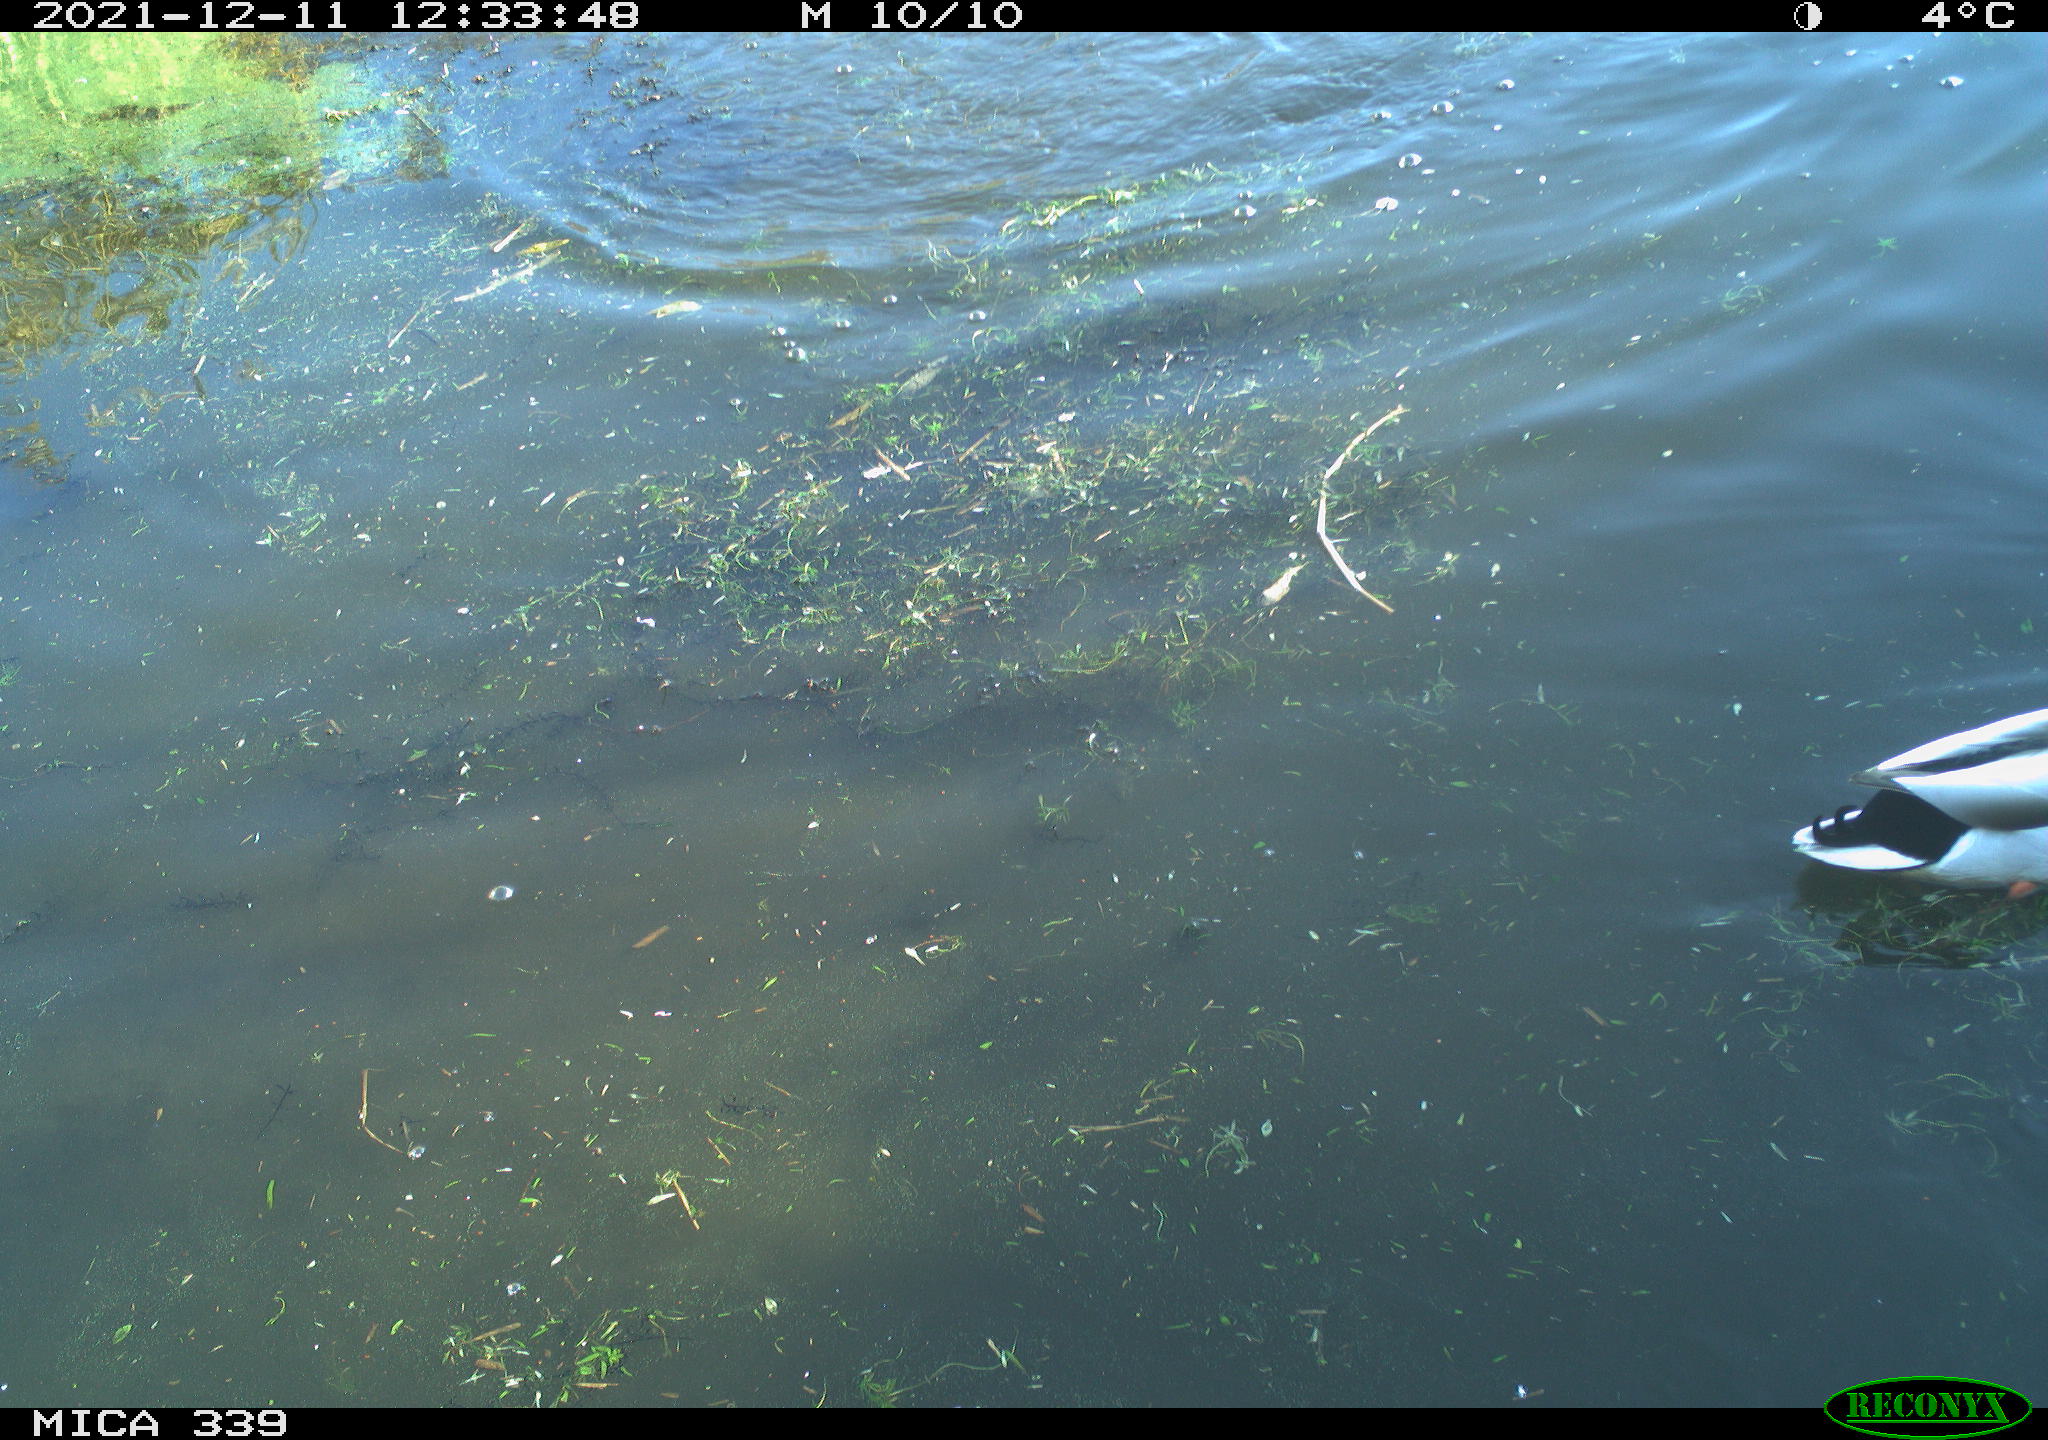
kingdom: Animalia
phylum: Chordata
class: Aves
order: Suliformes
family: Phalacrocoracidae
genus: Phalacrocorax
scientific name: Phalacrocorax carbo
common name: Great cormorant
